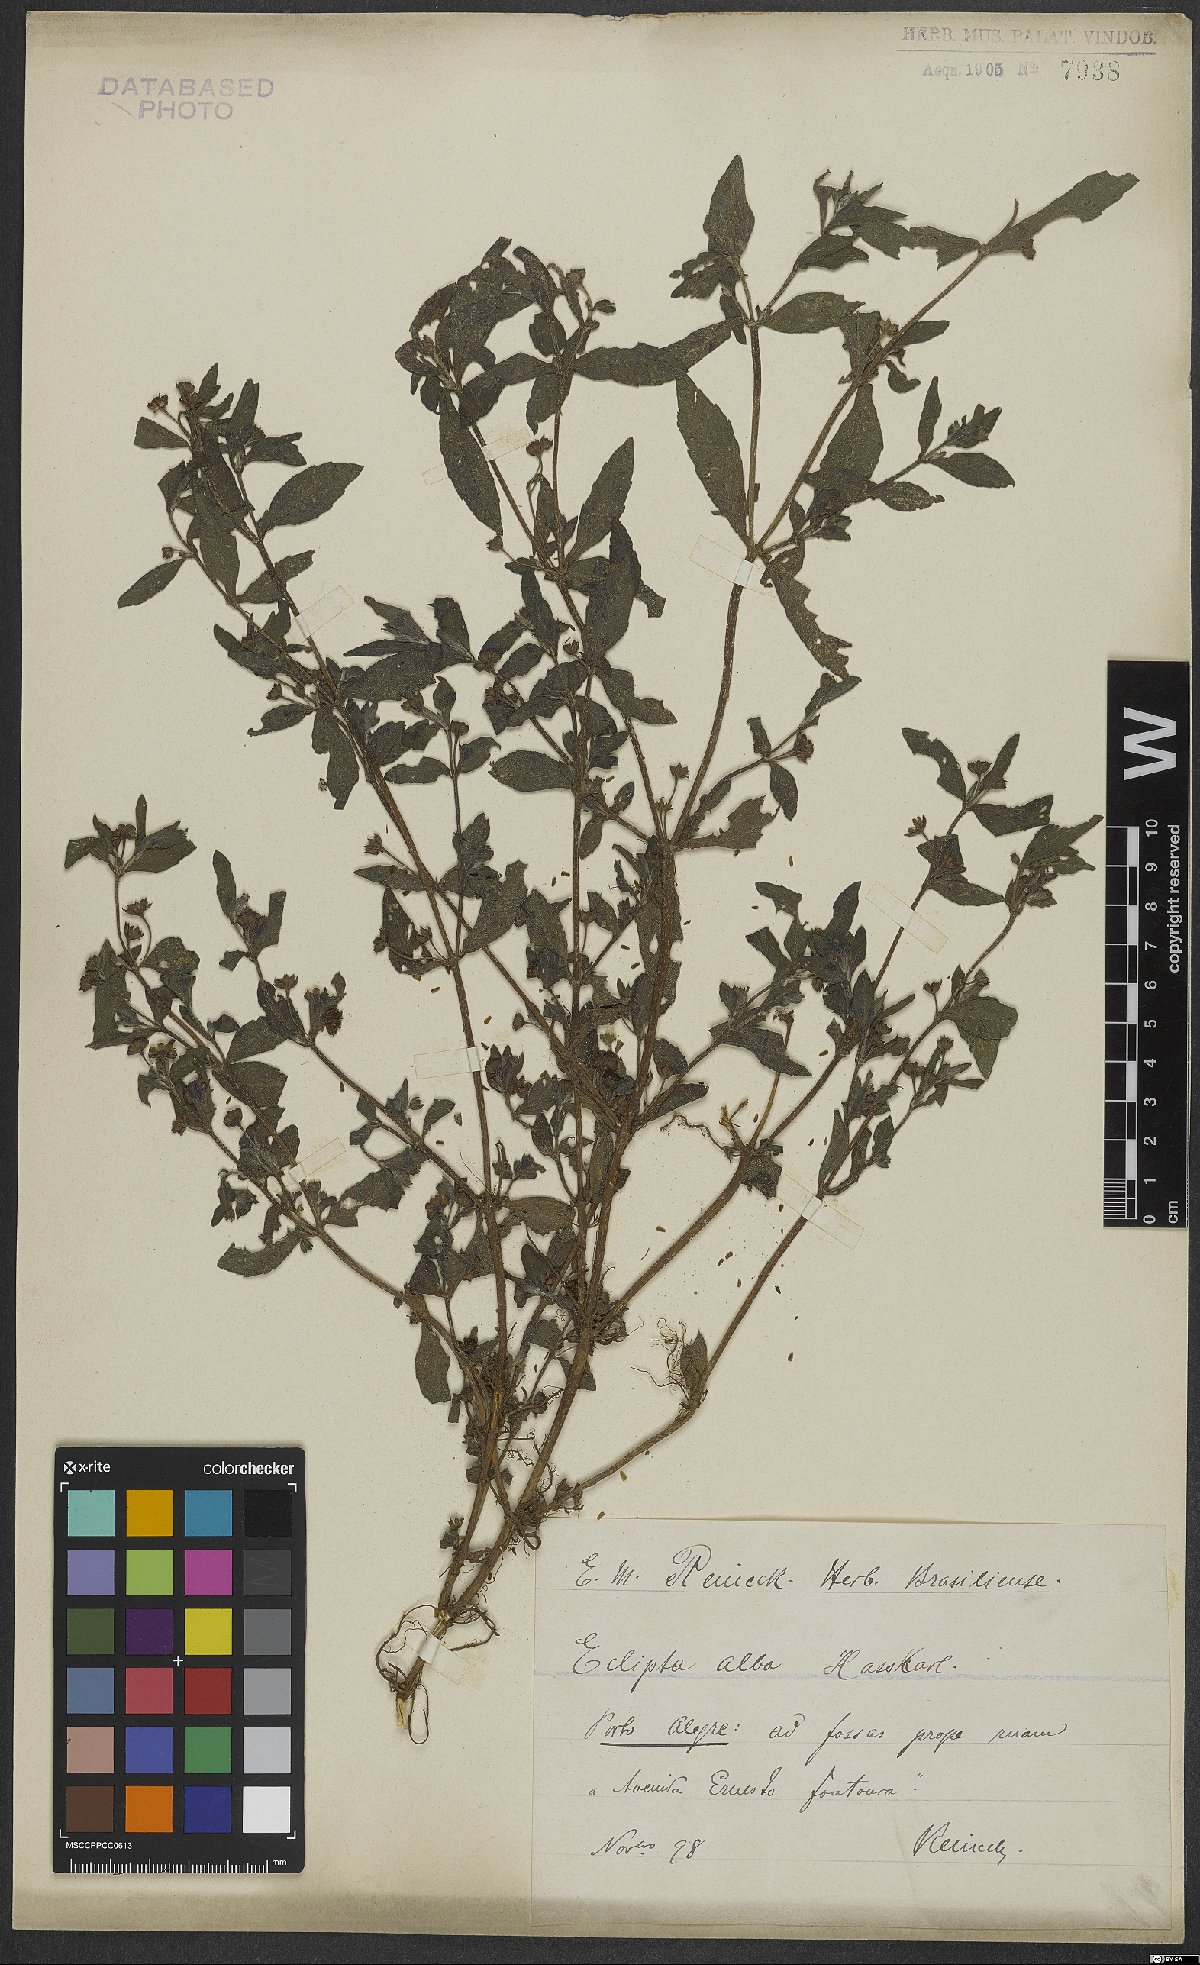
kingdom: Plantae
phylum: Tracheophyta
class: Magnoliopsida
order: Asterales
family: Asteraceae
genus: Eclipta
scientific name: Eclipta alba
